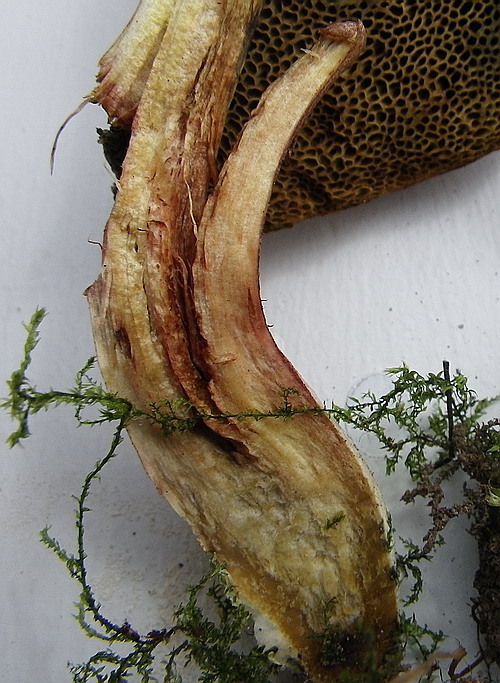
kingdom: Fungi
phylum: Basidiomycota
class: Agaricomycetes
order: Boletales
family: Boletaceae
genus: Xerocomellus
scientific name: Xerocomellus chrysenteron
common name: rødsprukken rørhat
